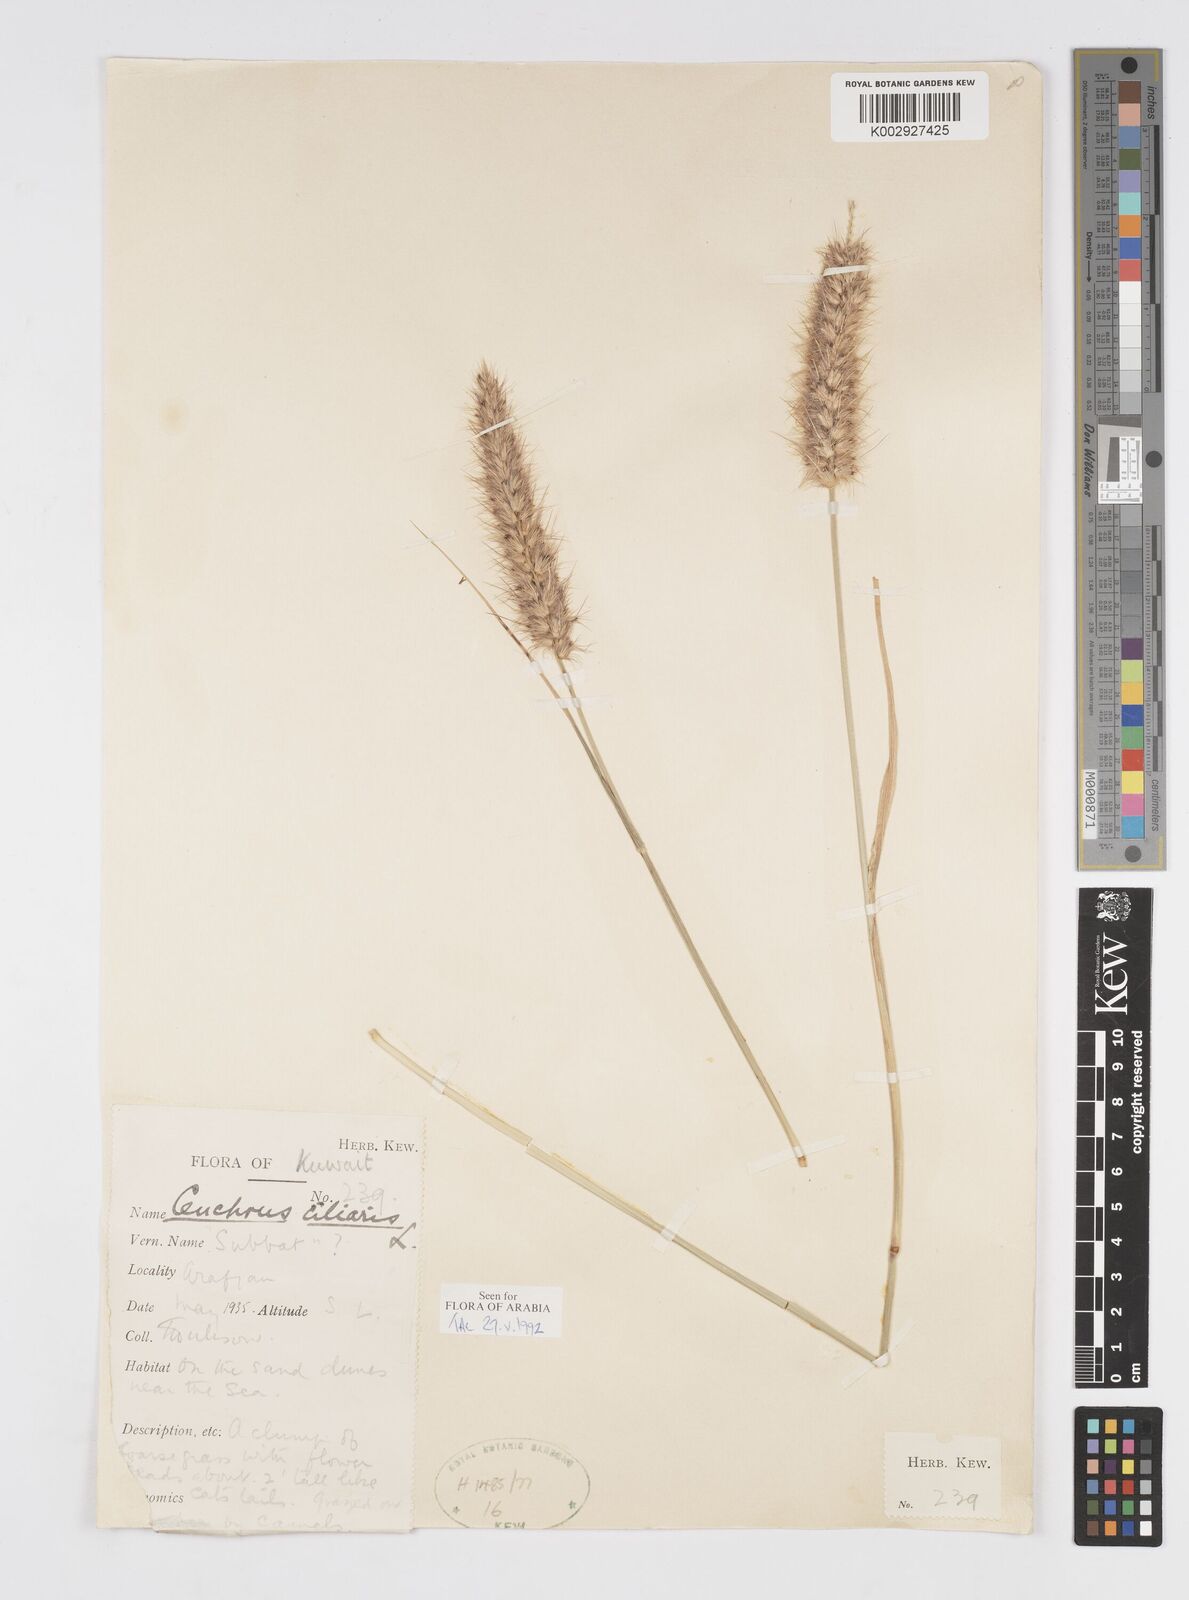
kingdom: Plantae
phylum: Tracheophyta
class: Liliopsida
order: Poales
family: Poaceae
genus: Cenchrus
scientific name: Cenchrus ciliaris
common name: Buffelgrass
